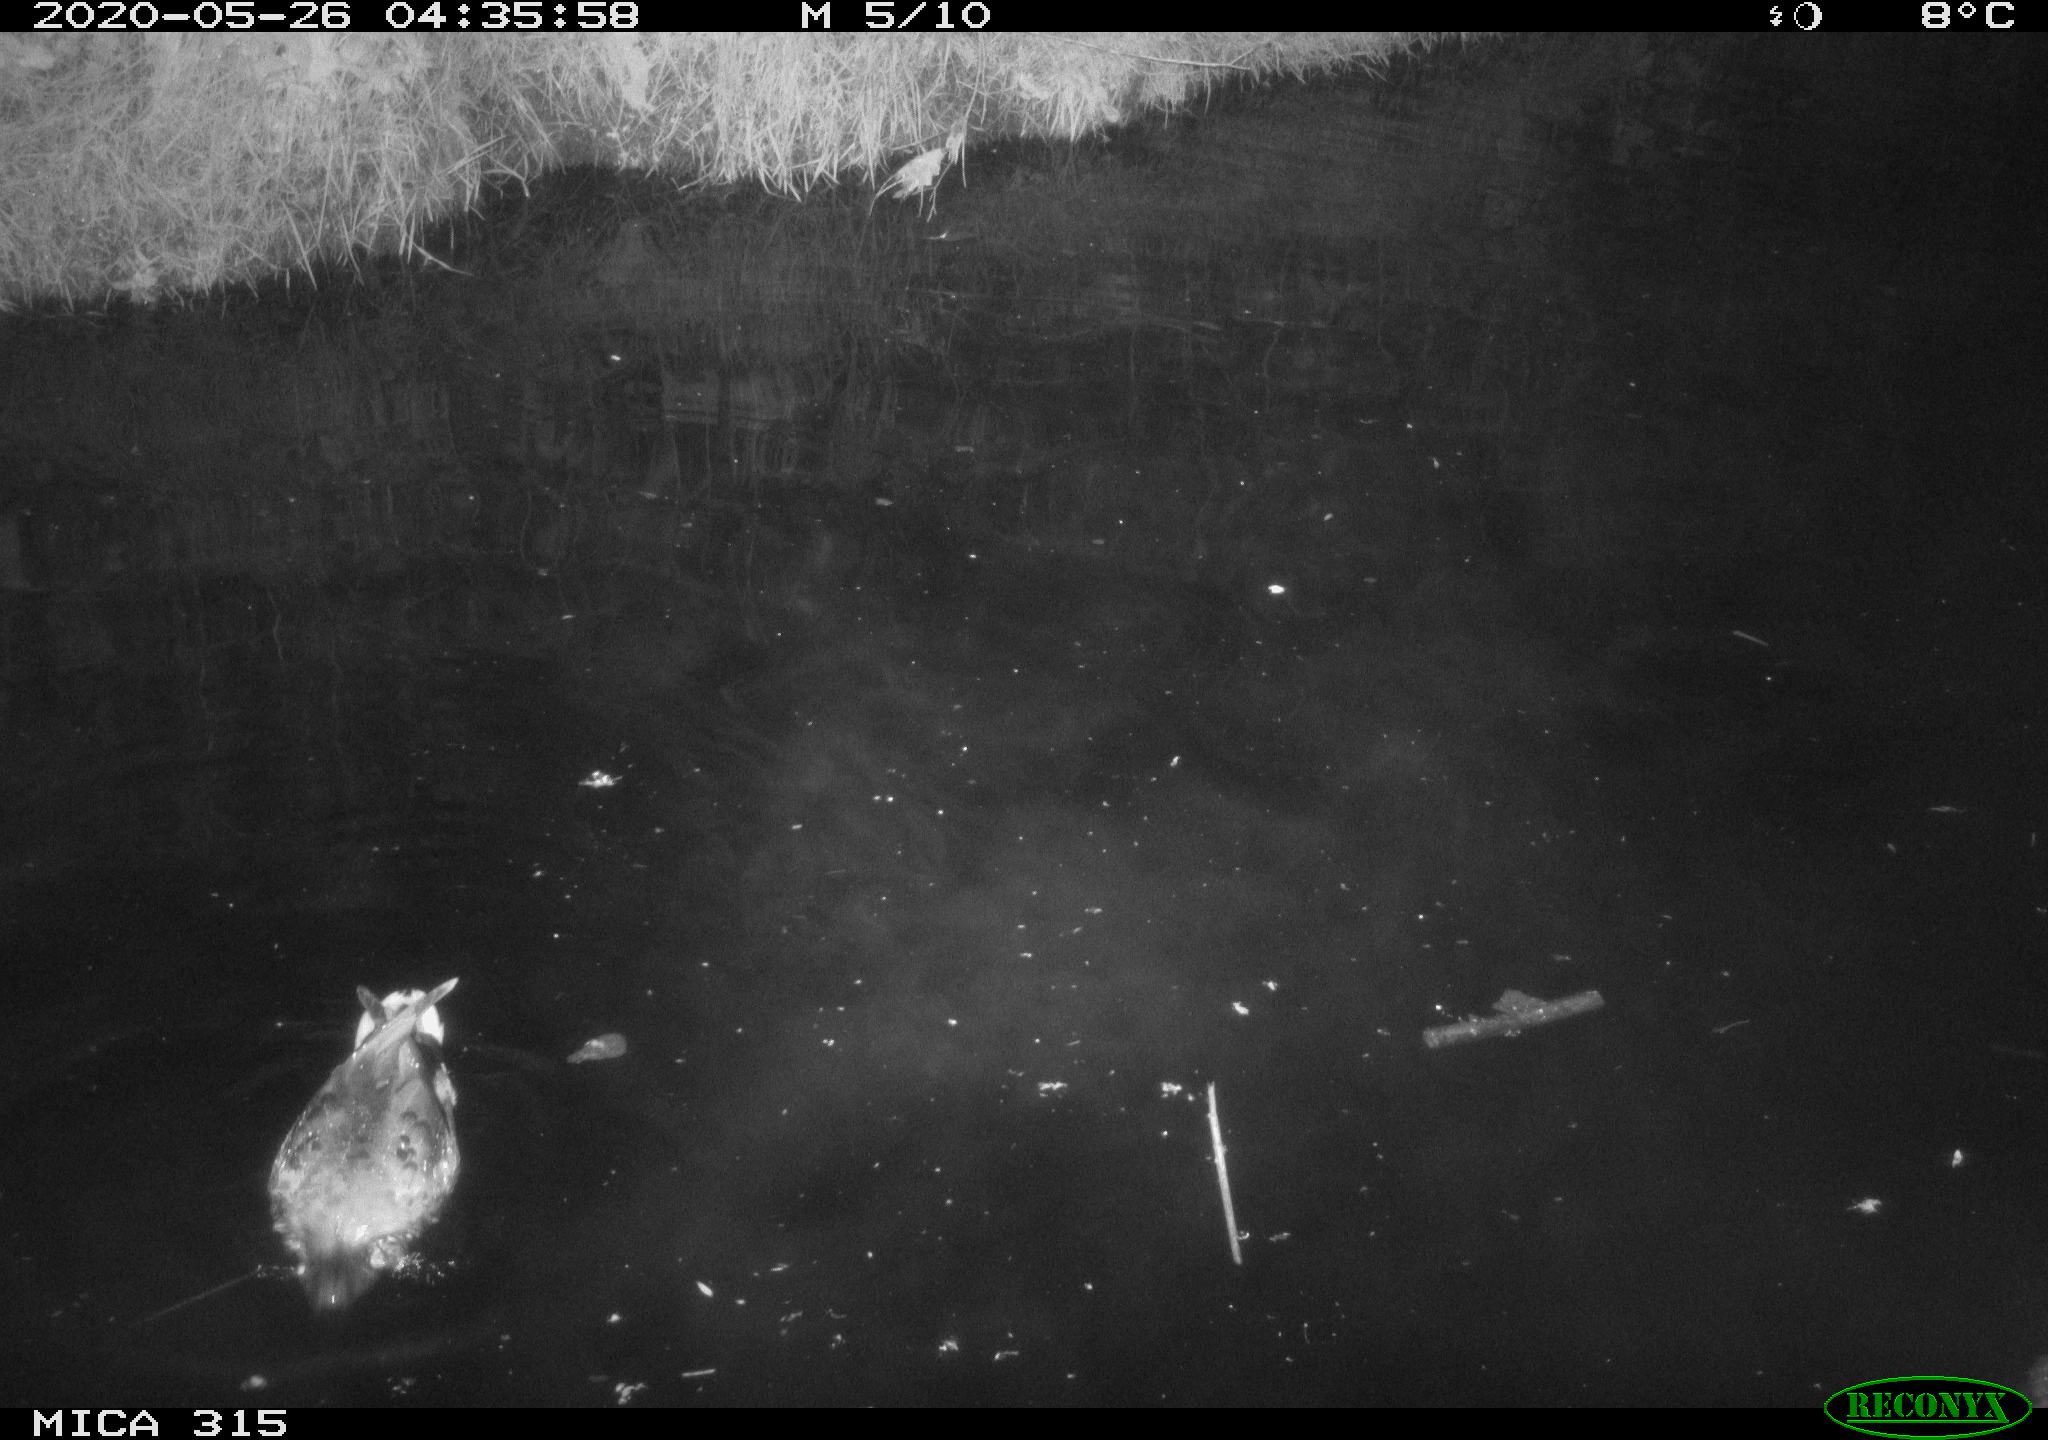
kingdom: Animalia
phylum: Chordata
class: Aves
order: Anseriformes
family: Anatidae
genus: Anas
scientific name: Anas platyrhynchos
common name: Mallard
